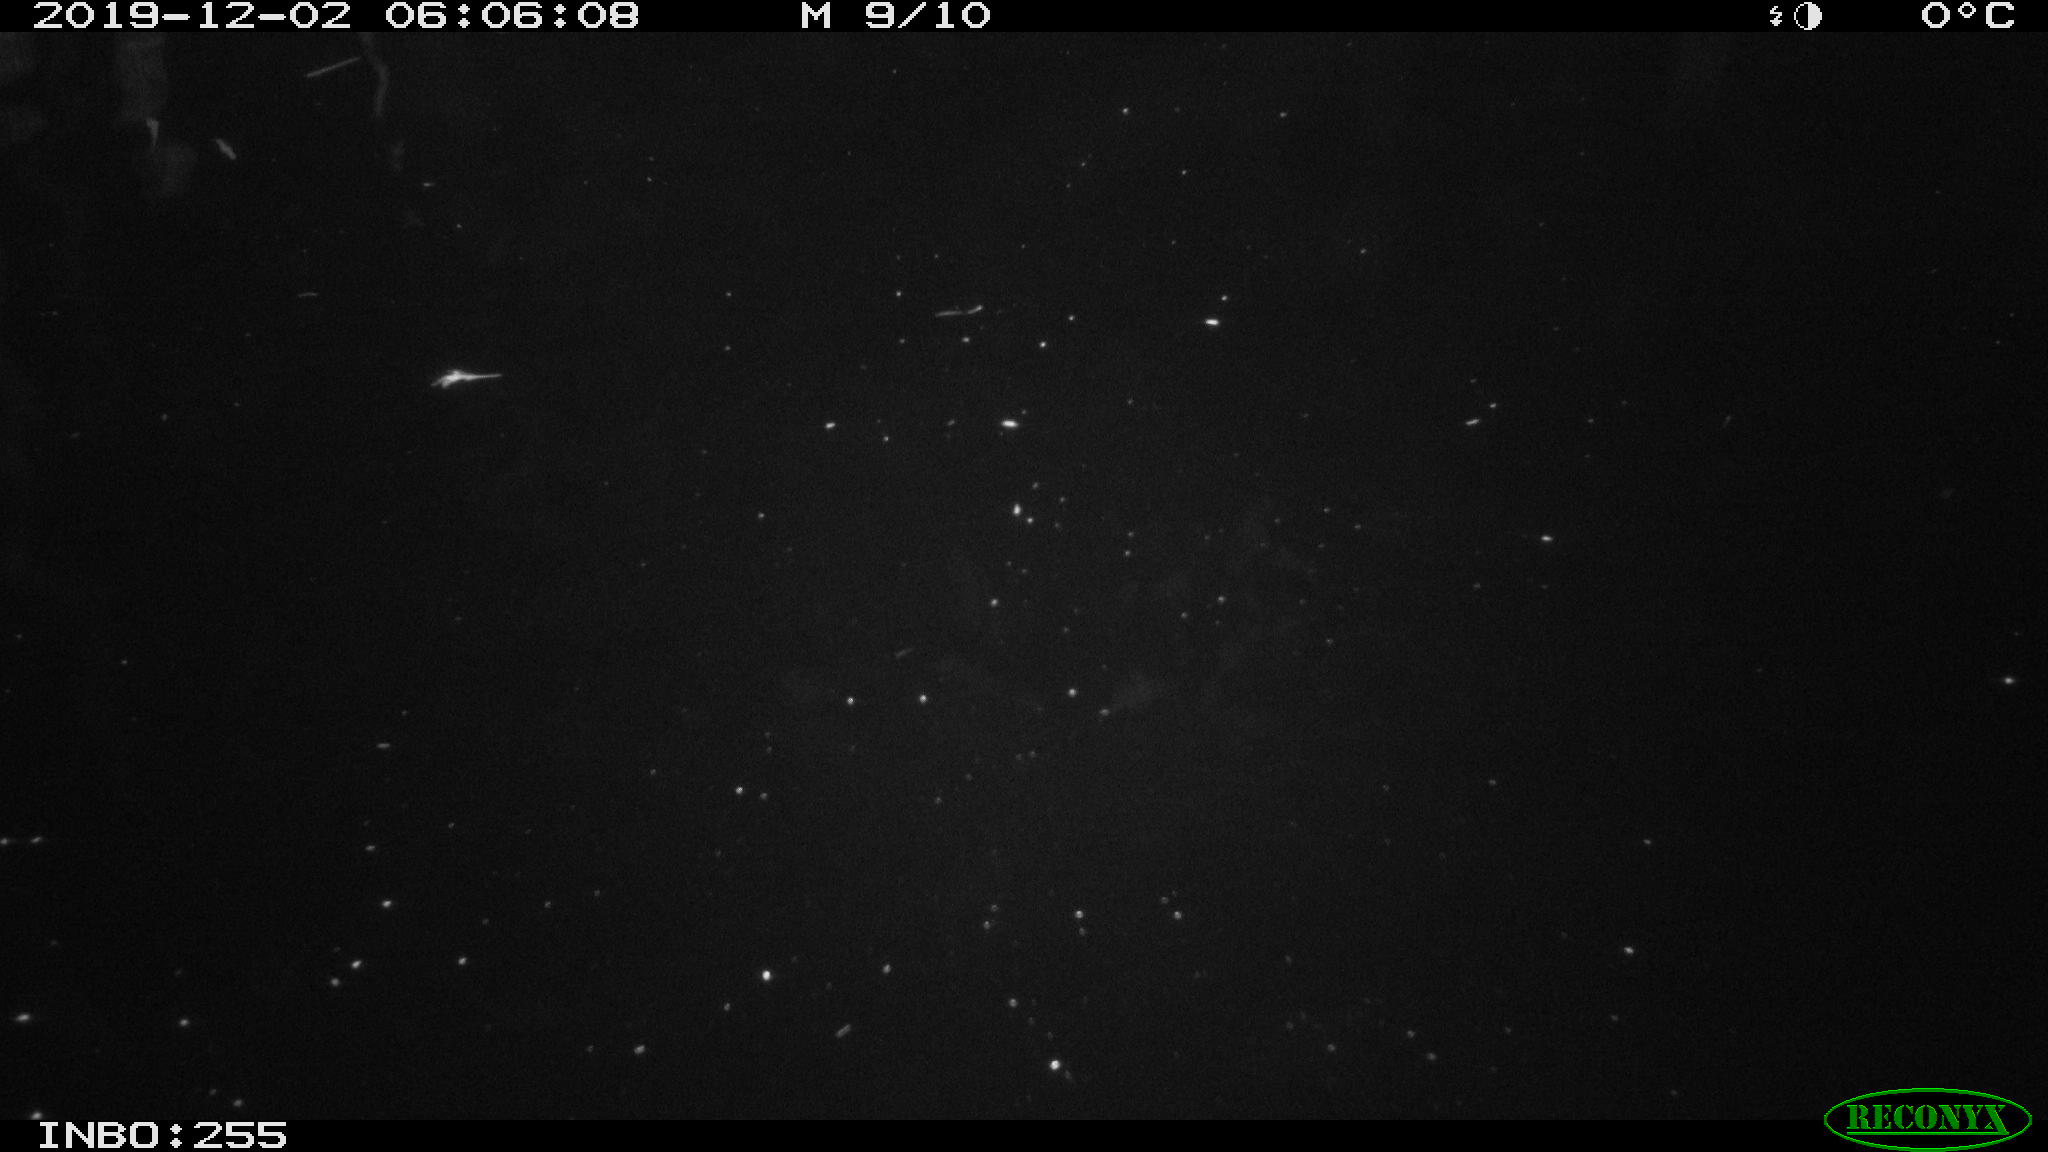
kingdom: Animalia
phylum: Chordata
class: Aves
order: Anseriformes
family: Anatidae
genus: Anas
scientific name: Anas platyrhynchos
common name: Mallard
